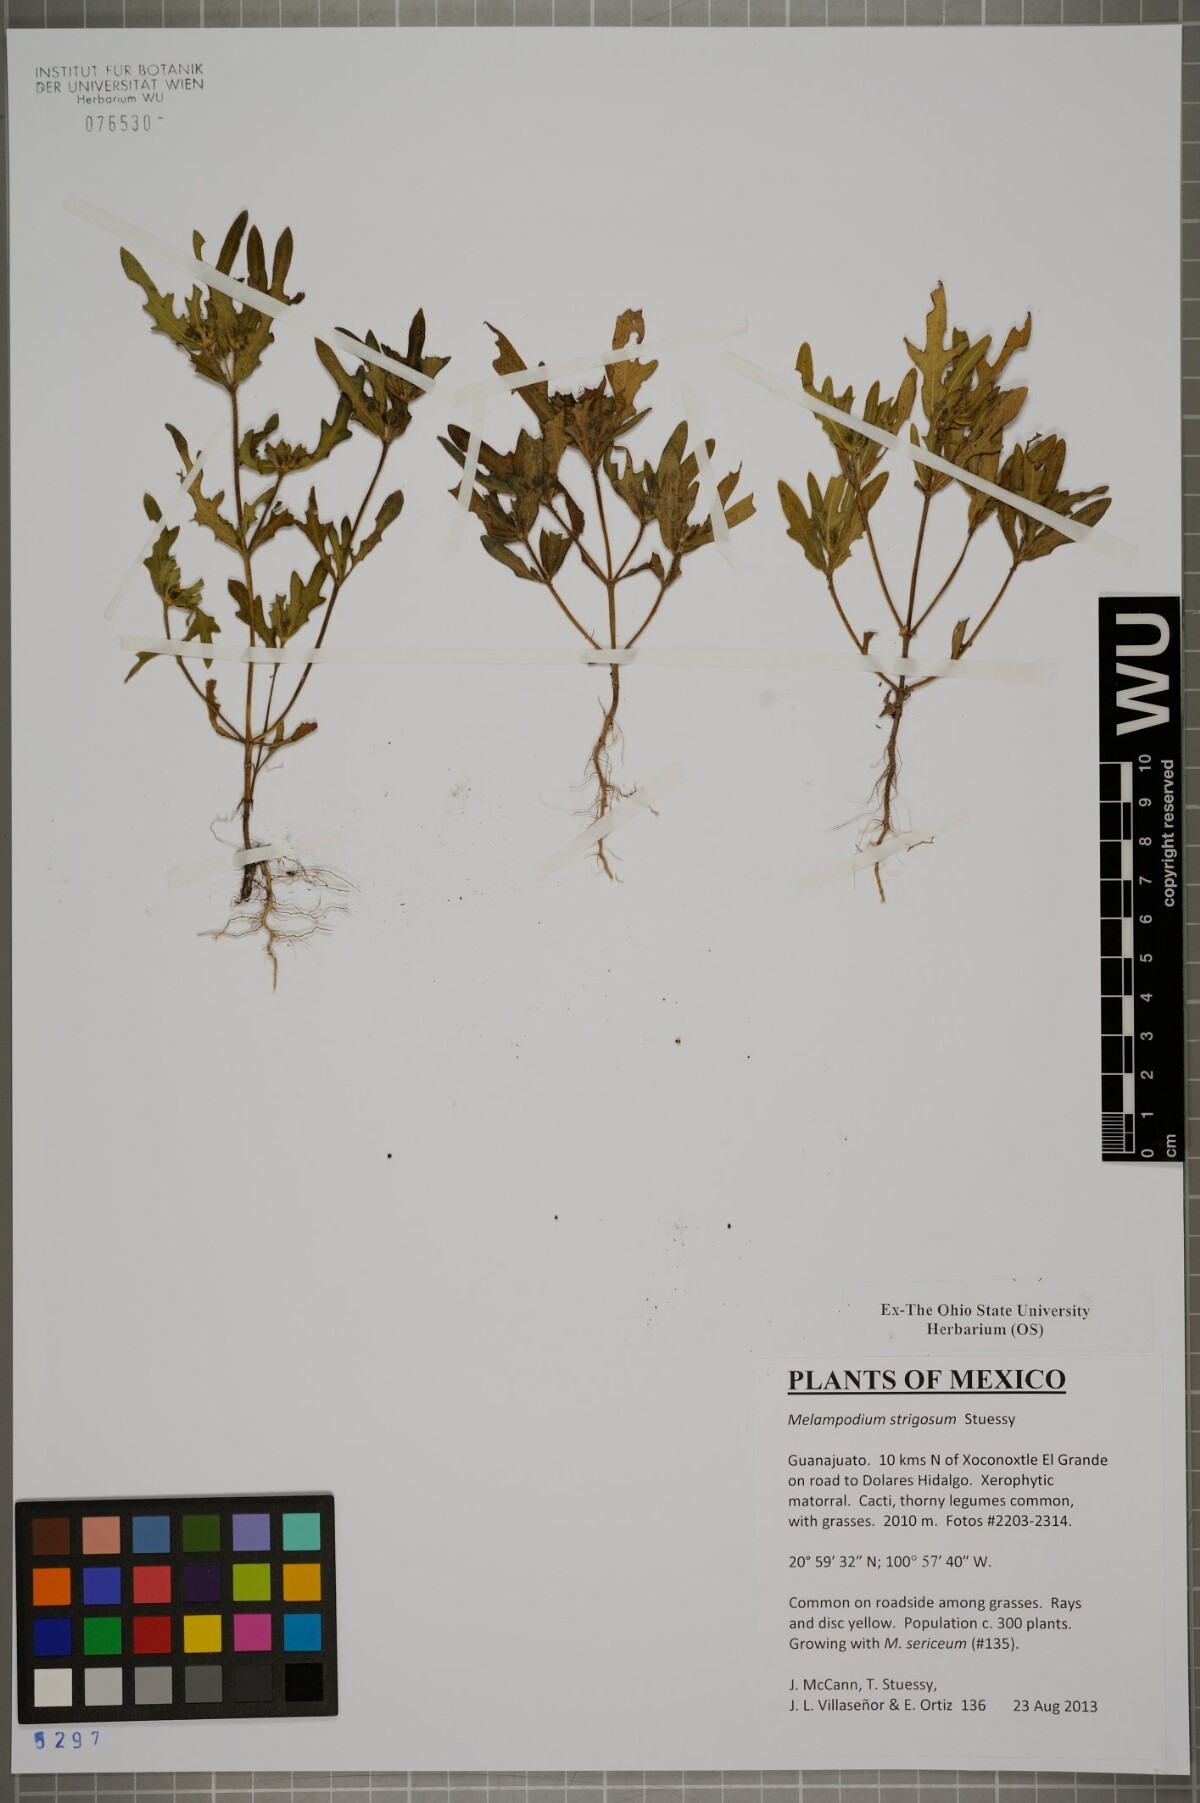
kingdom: Plantae
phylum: Tracheophyta
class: Magnoliopsida
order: Asterales
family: Asteraceae
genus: Melampodium
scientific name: Melampodium strigosum
